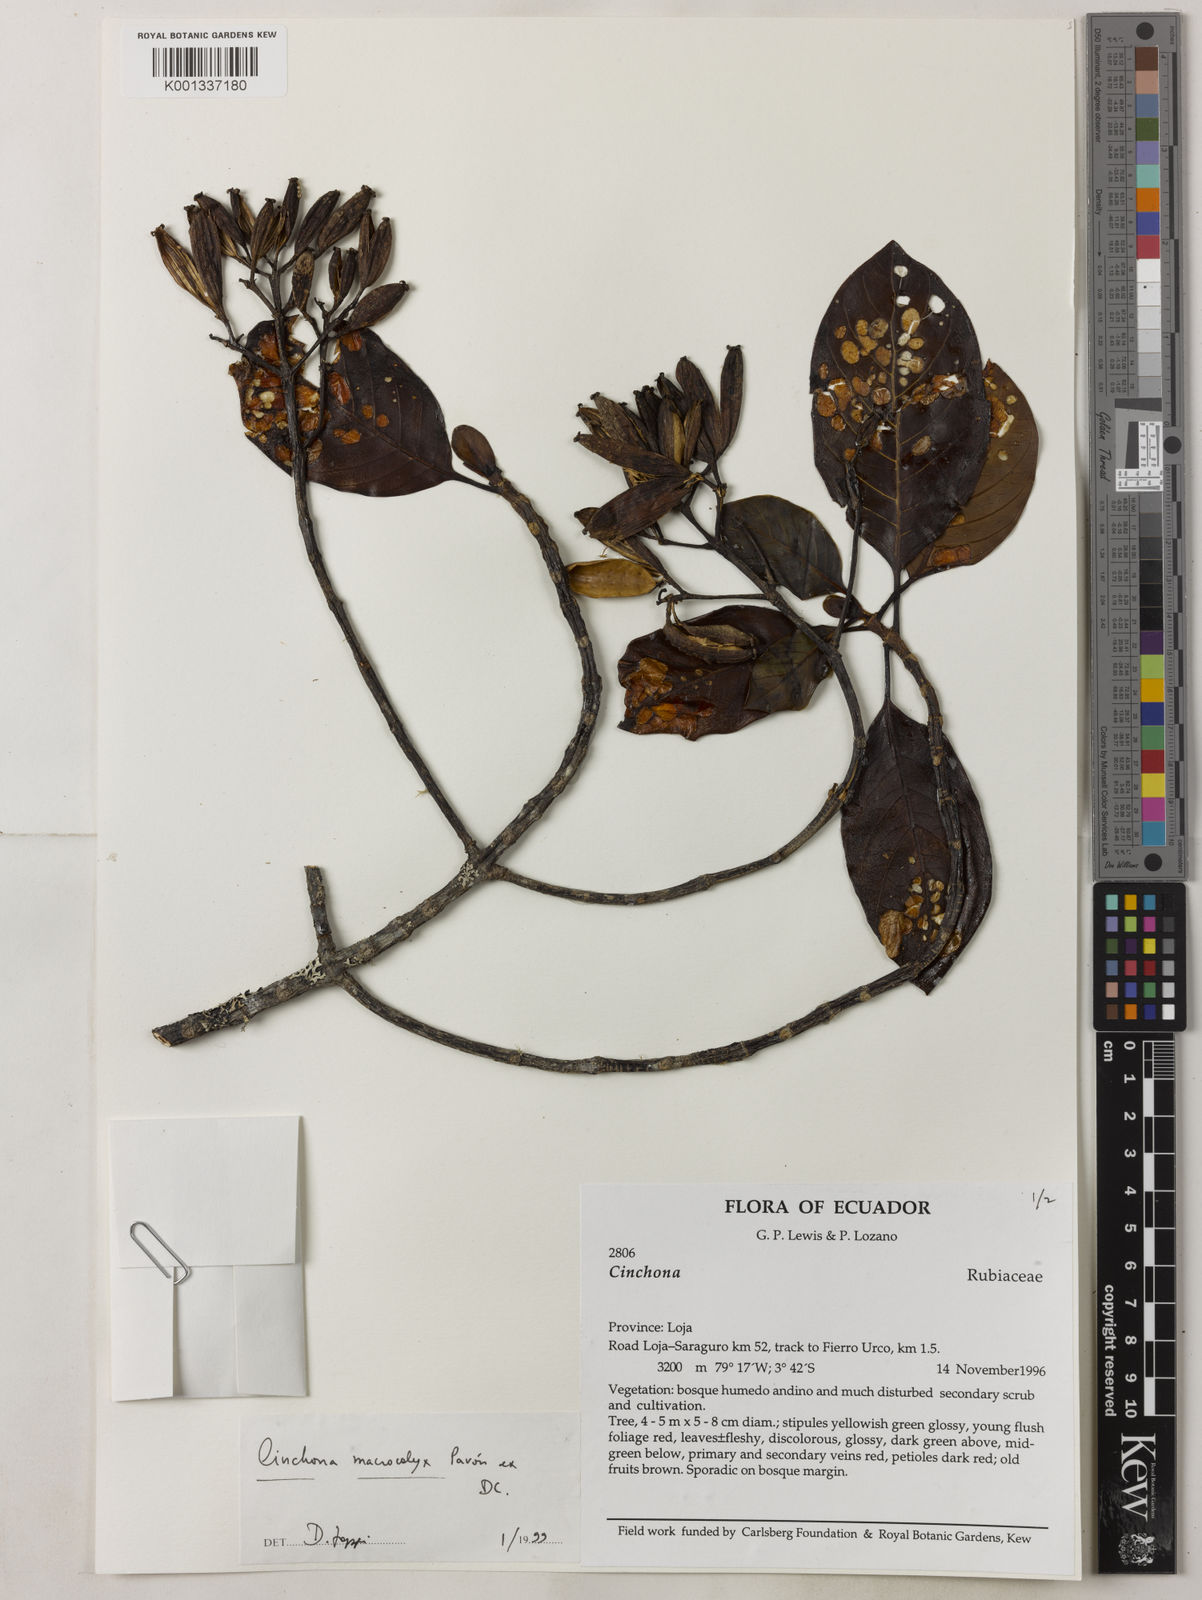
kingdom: Plantae
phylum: Tracheophyta
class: Magnoliopsida
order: Gentianales
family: Rubiaceae
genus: Cinchona
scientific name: Cinchona macrocalyx
